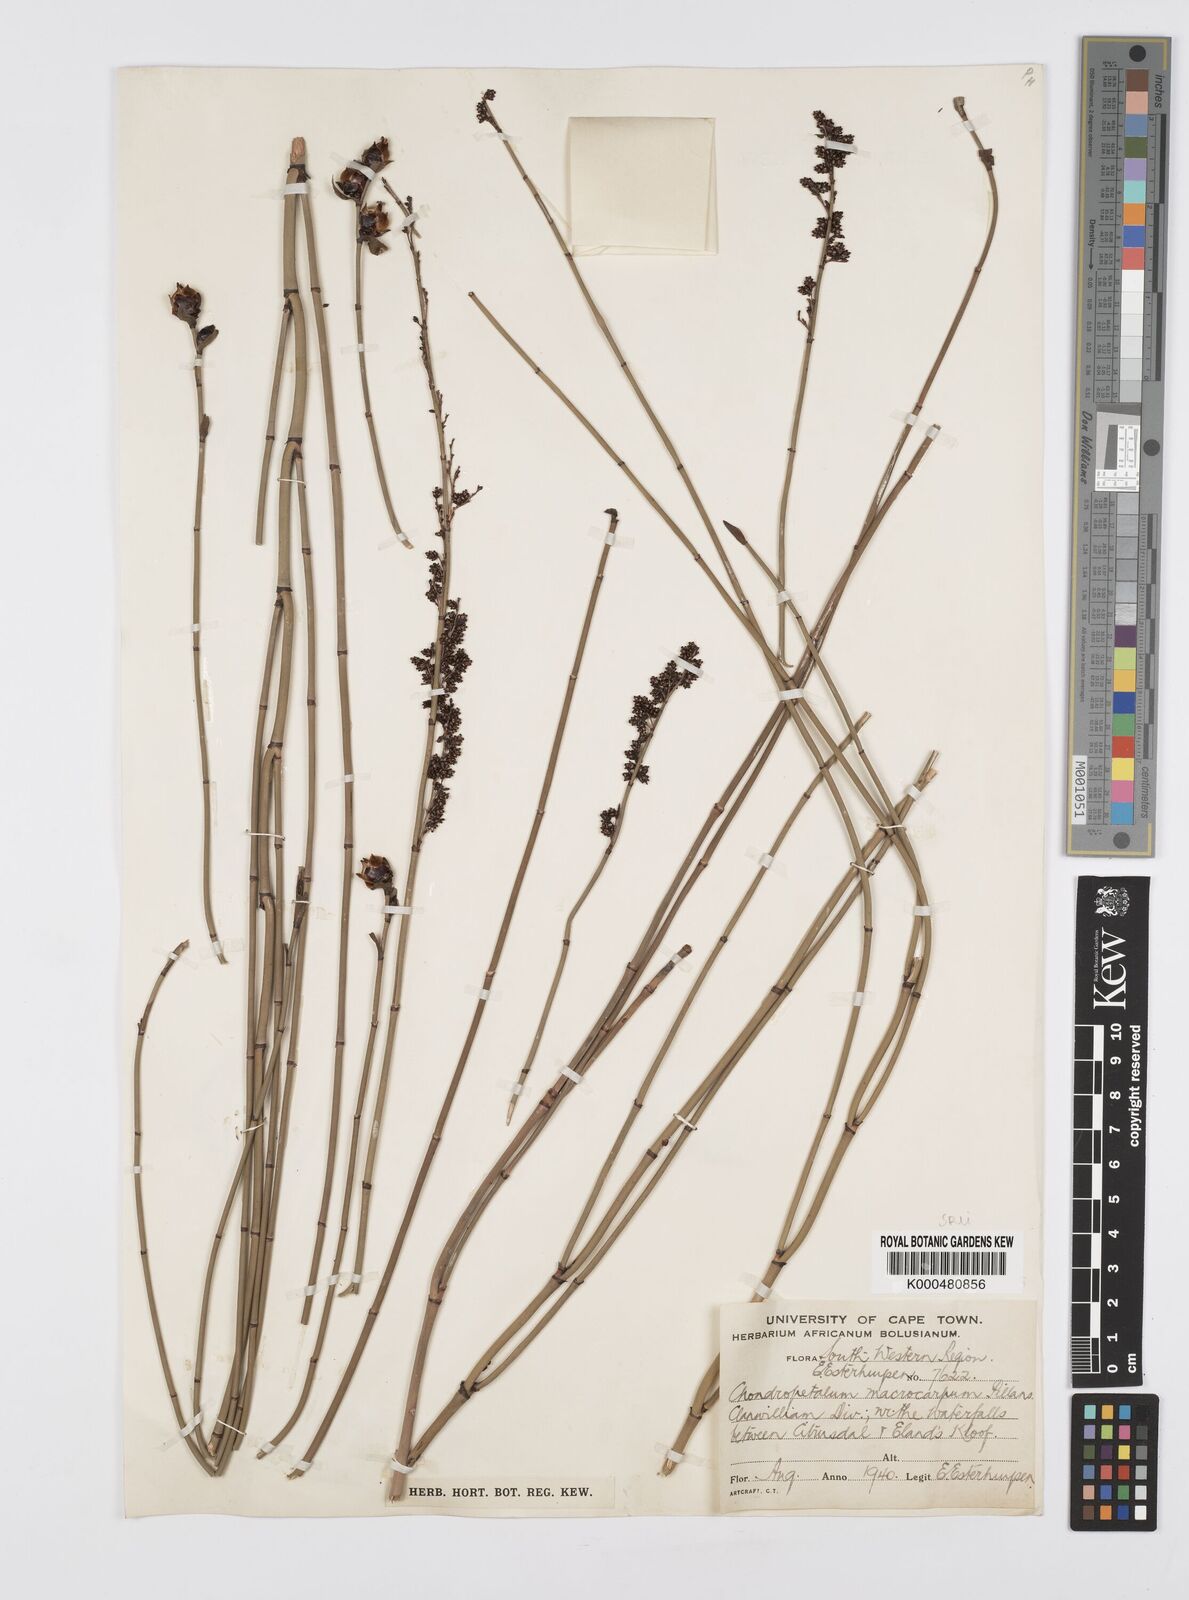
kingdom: Plantae
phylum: Tracheophyta
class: Liliopsida
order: Poales
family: Restionaceae
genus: Elegia
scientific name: Elegia macrocarpa
